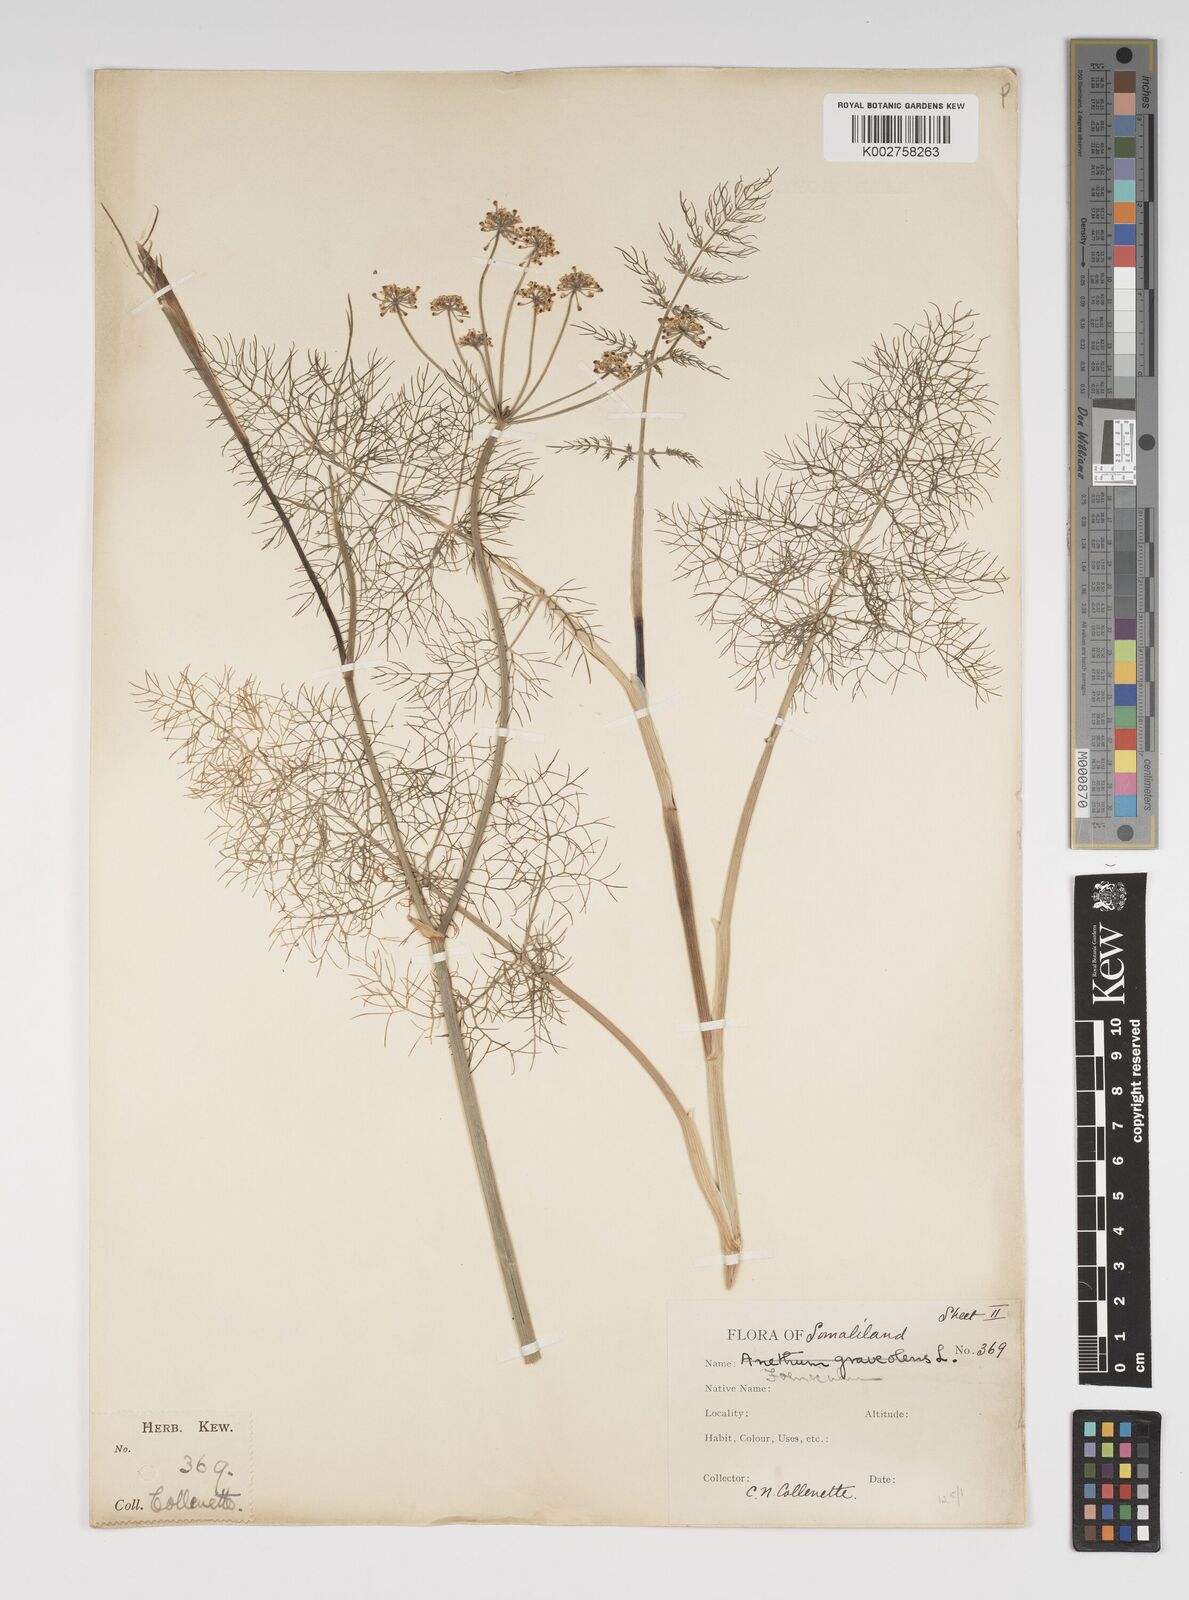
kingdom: Plantae
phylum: Tracheophyta
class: Magnoliopsida
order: Apiales
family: Apiaceae
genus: Foeniculum
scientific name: Foeniculum vulgare
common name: Fennel
